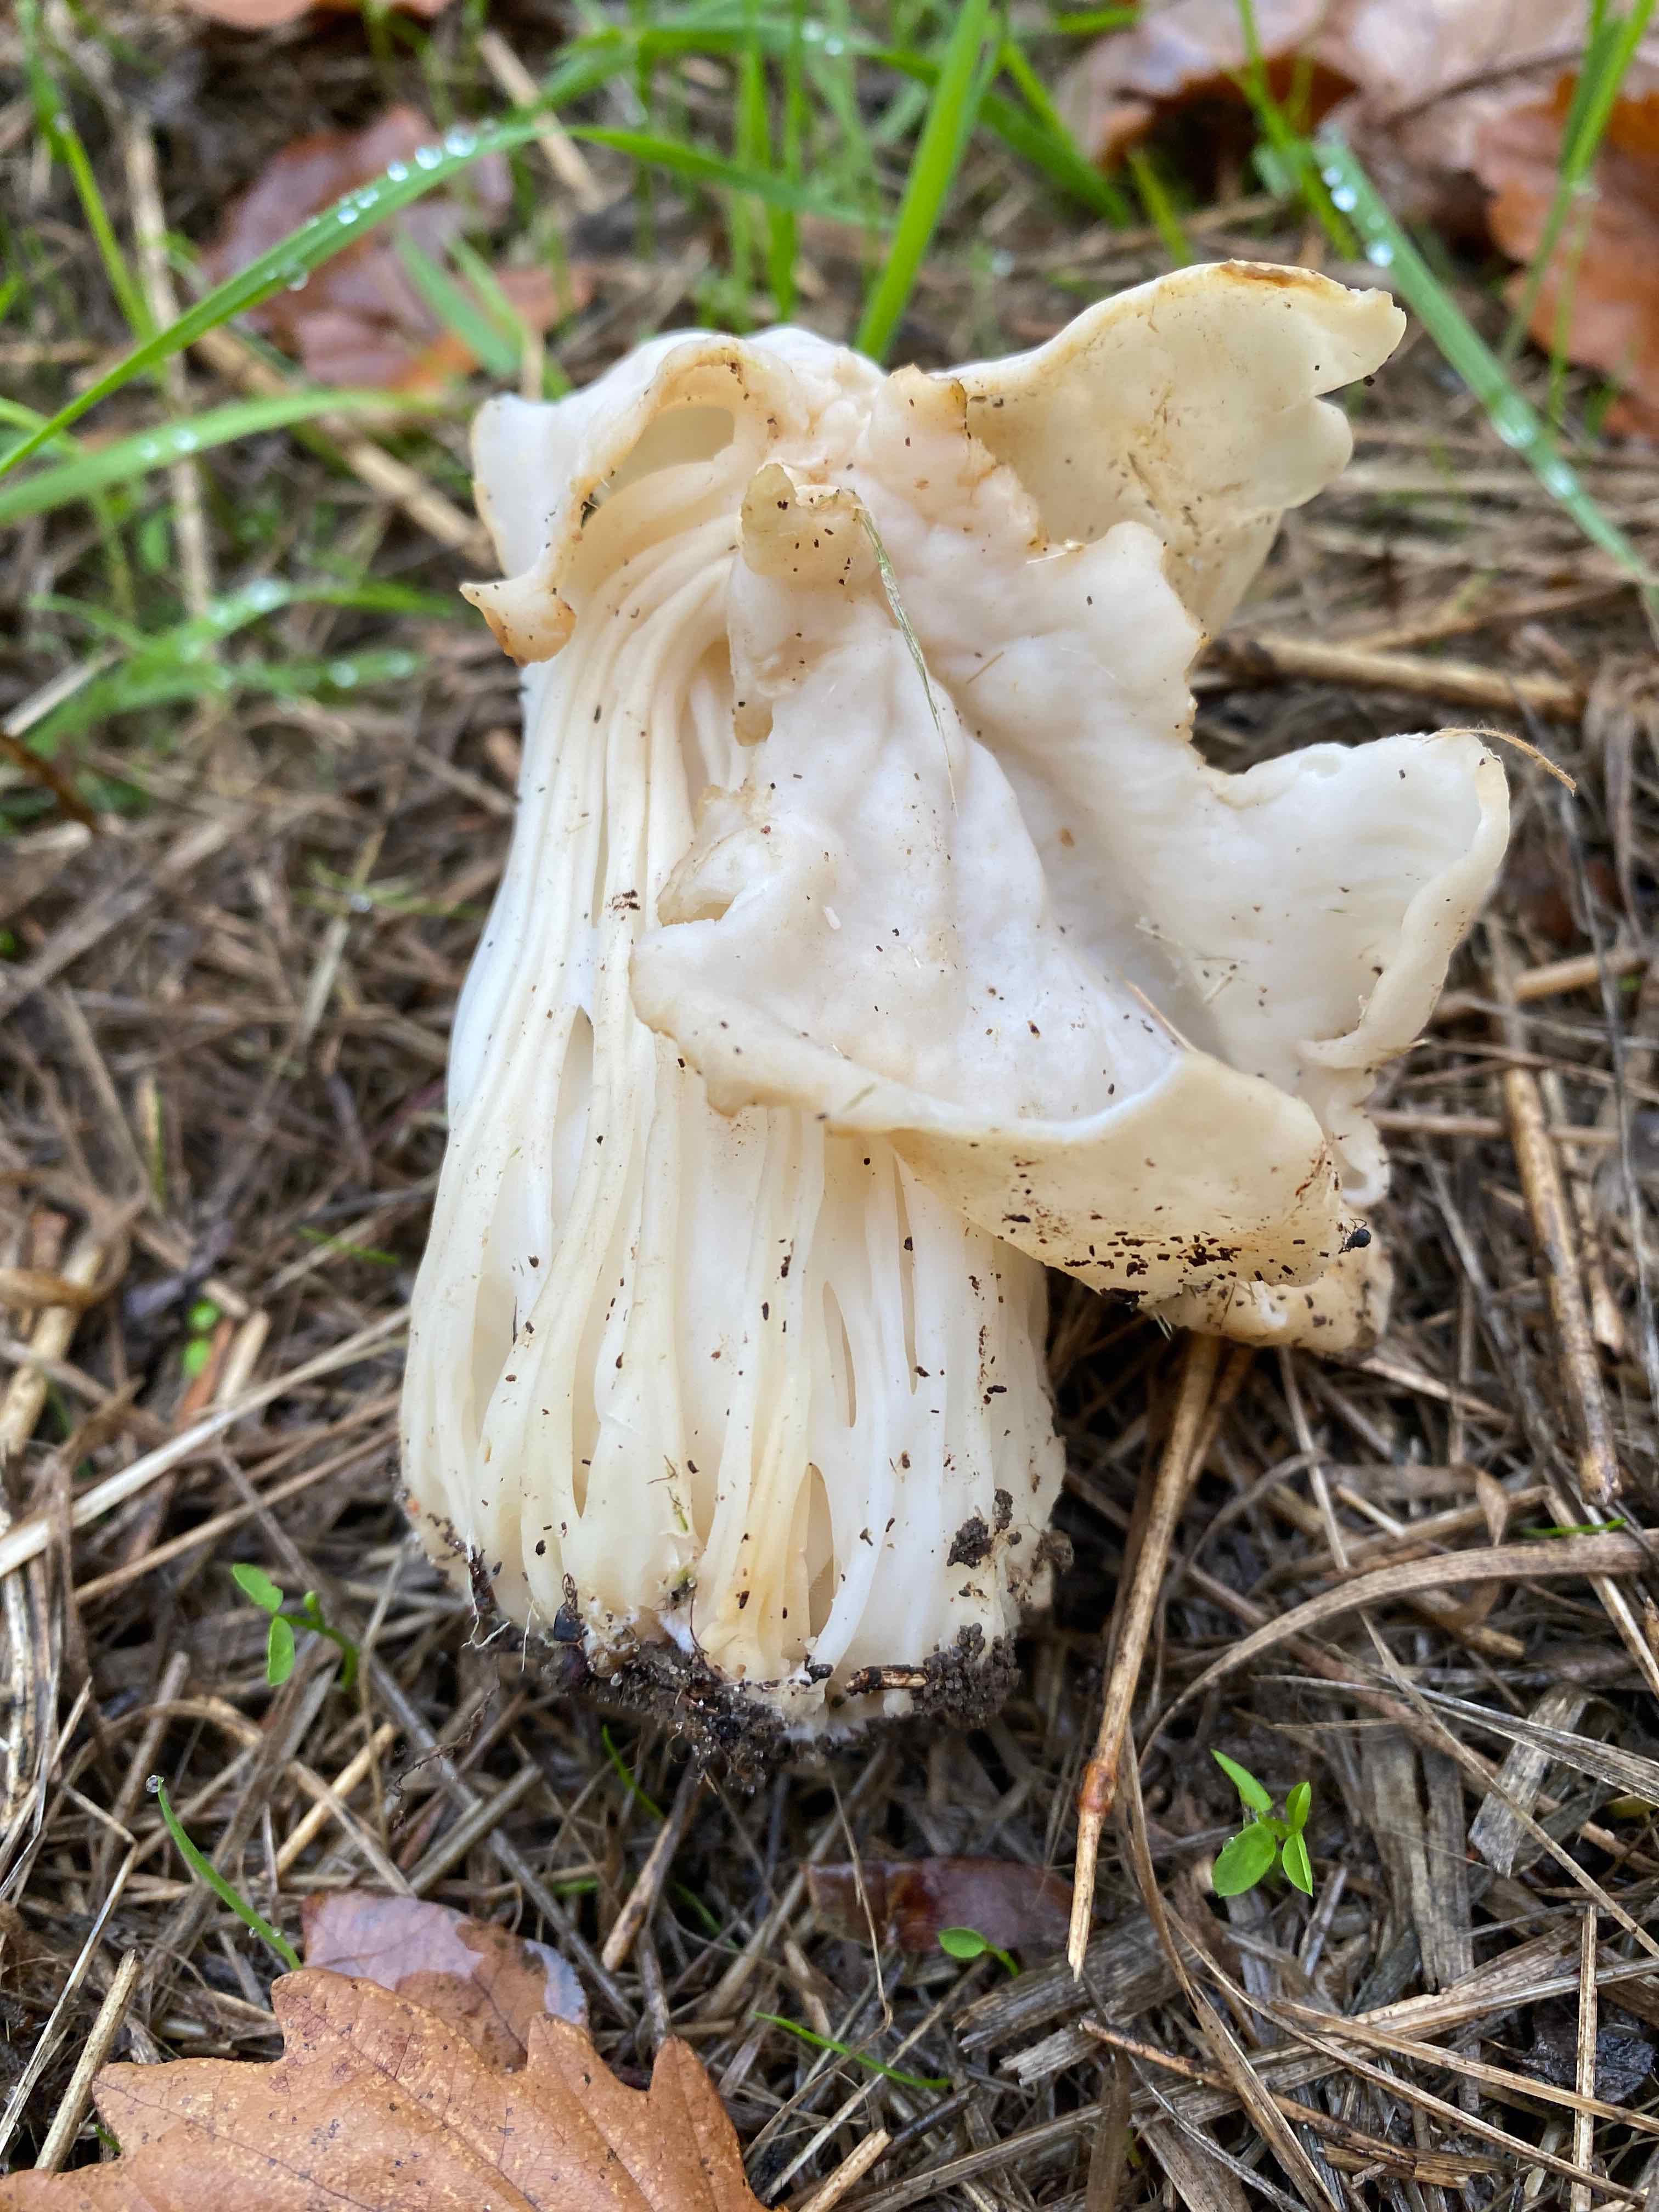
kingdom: Fungi
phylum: Ascomycota
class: Pezizomycetes
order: Pezizales
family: Helvellaceae
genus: Helvella
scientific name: Helvella crispa
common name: kruset foldhat
